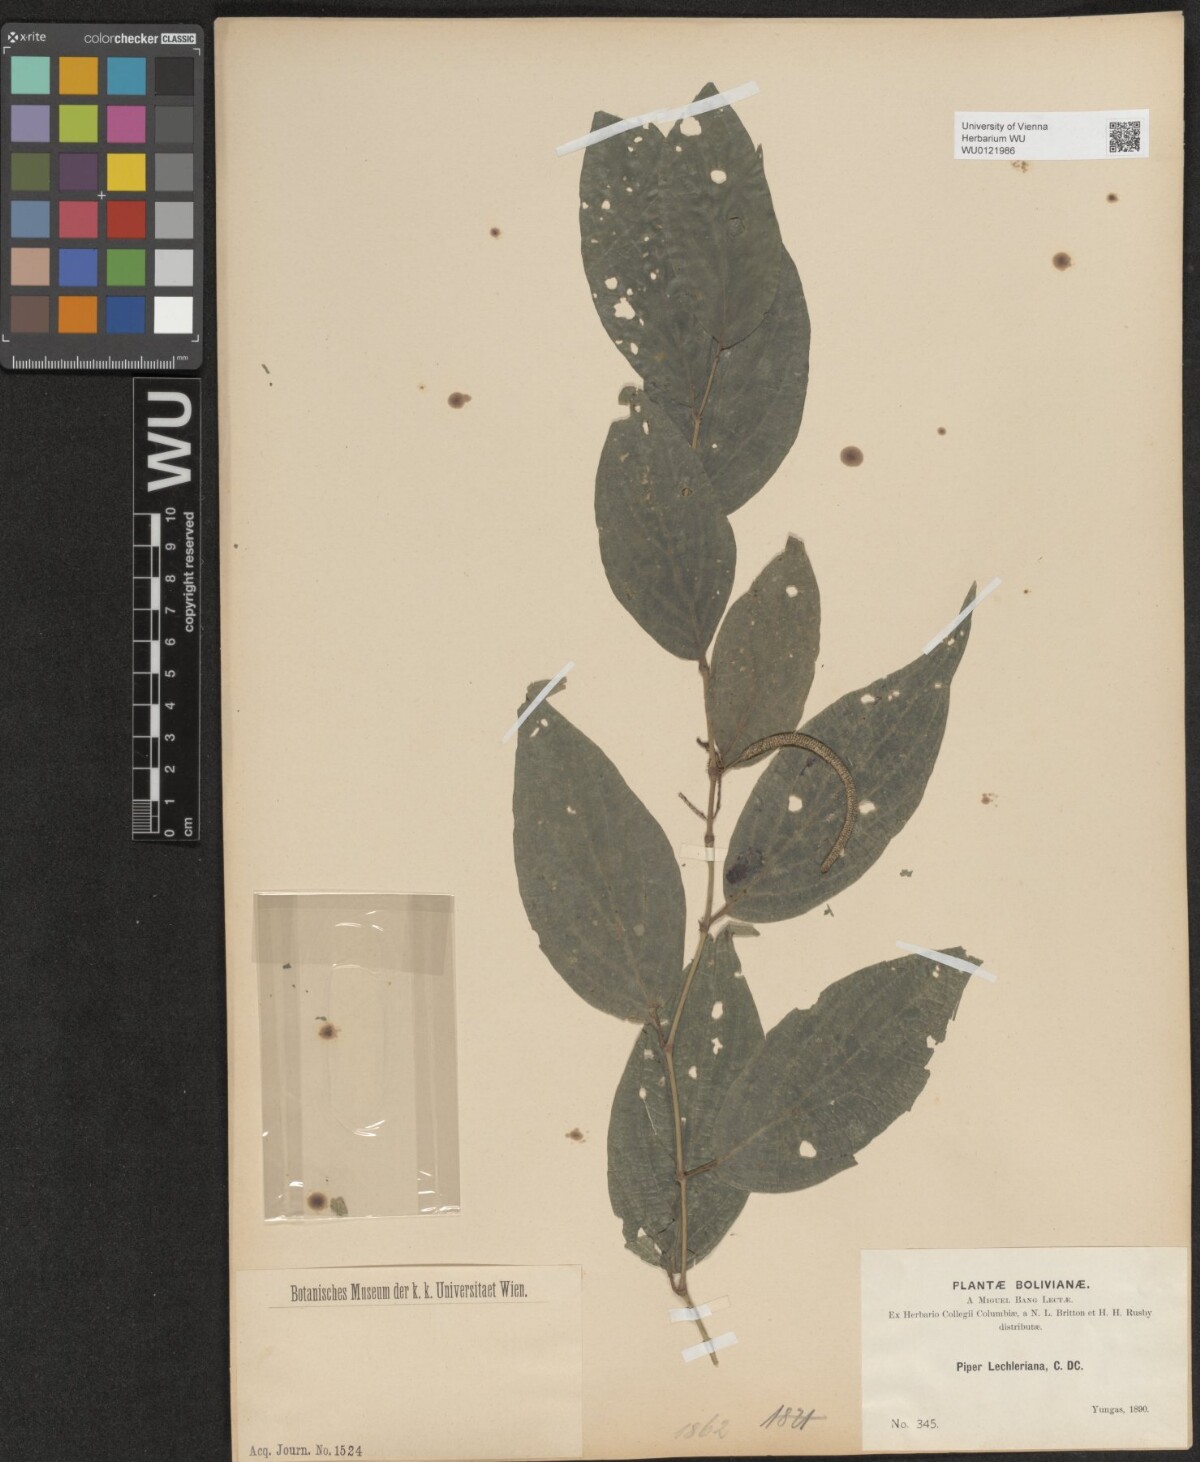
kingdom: Plantae
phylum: Tracheophyta
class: Magnoliopsida
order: Piperales
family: Piperaceae
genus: Piper
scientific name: Piper lechlerianum
